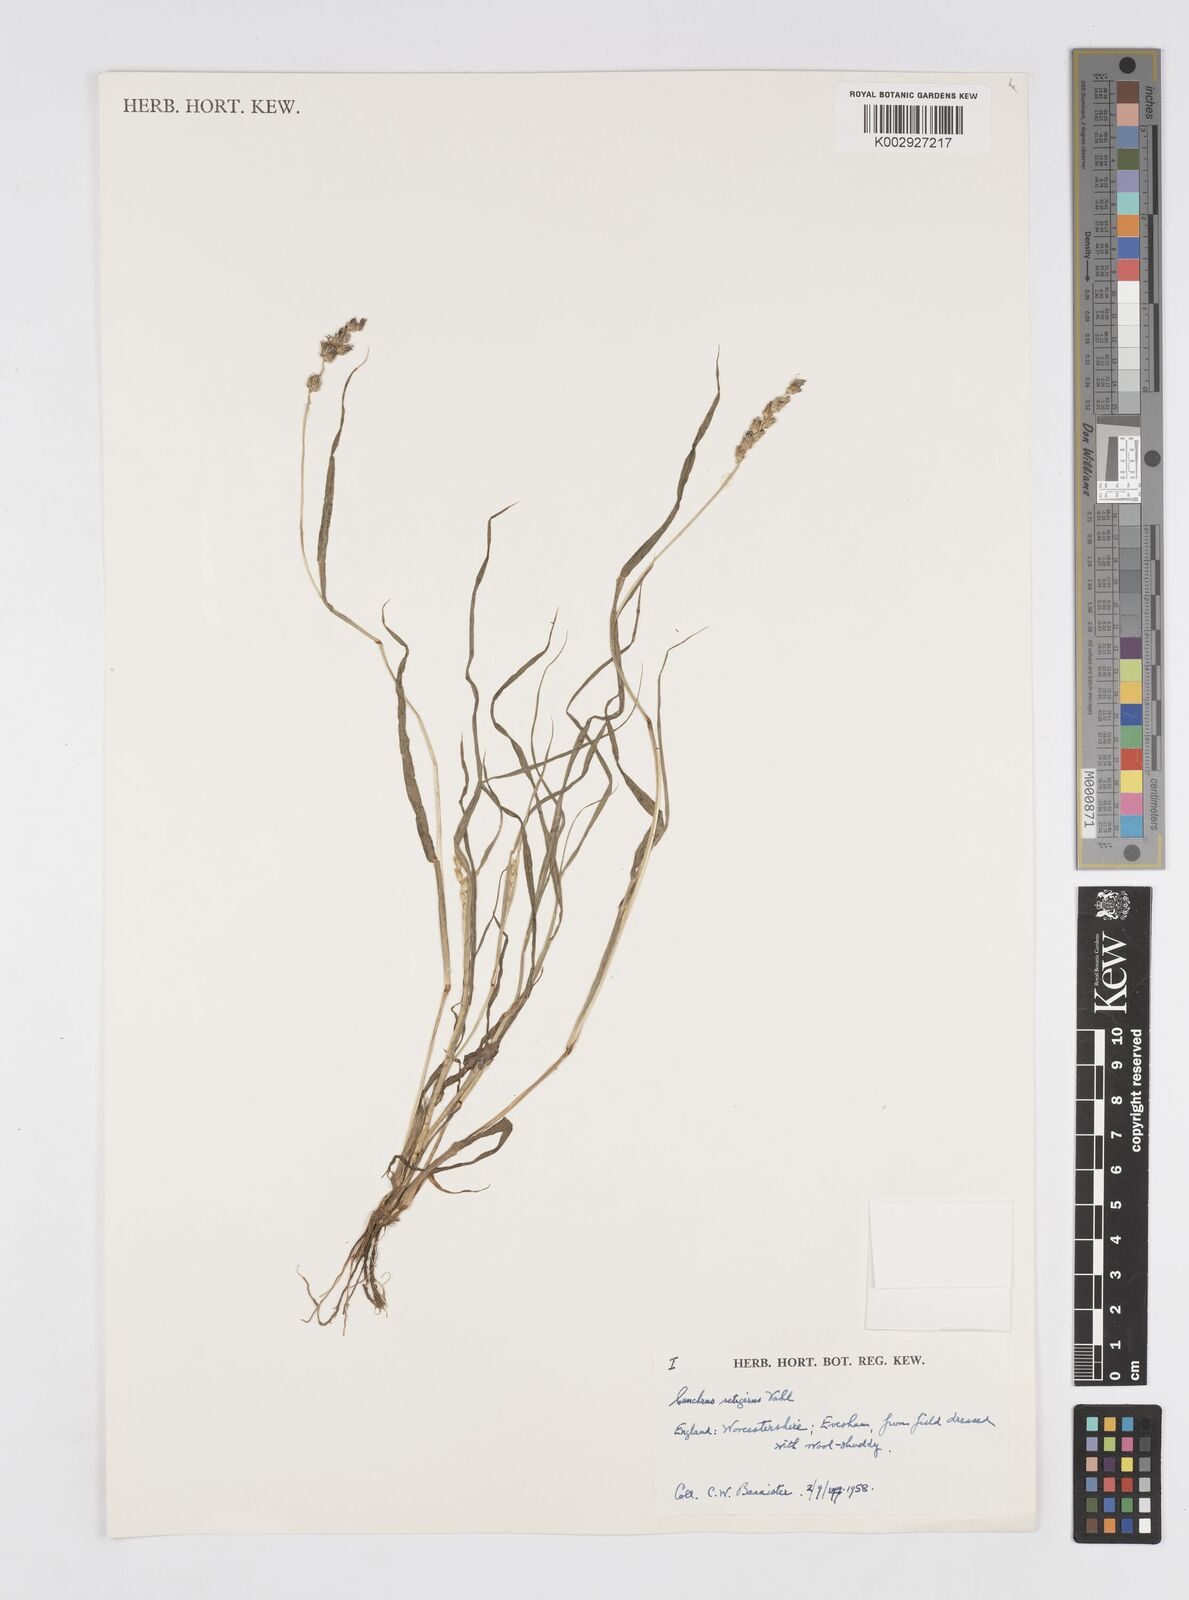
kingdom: Plantae
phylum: Tracheophyta
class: Liliopsida
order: Poales
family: Poaceae
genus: Cenchrus
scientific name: Cenchrus setigerus
